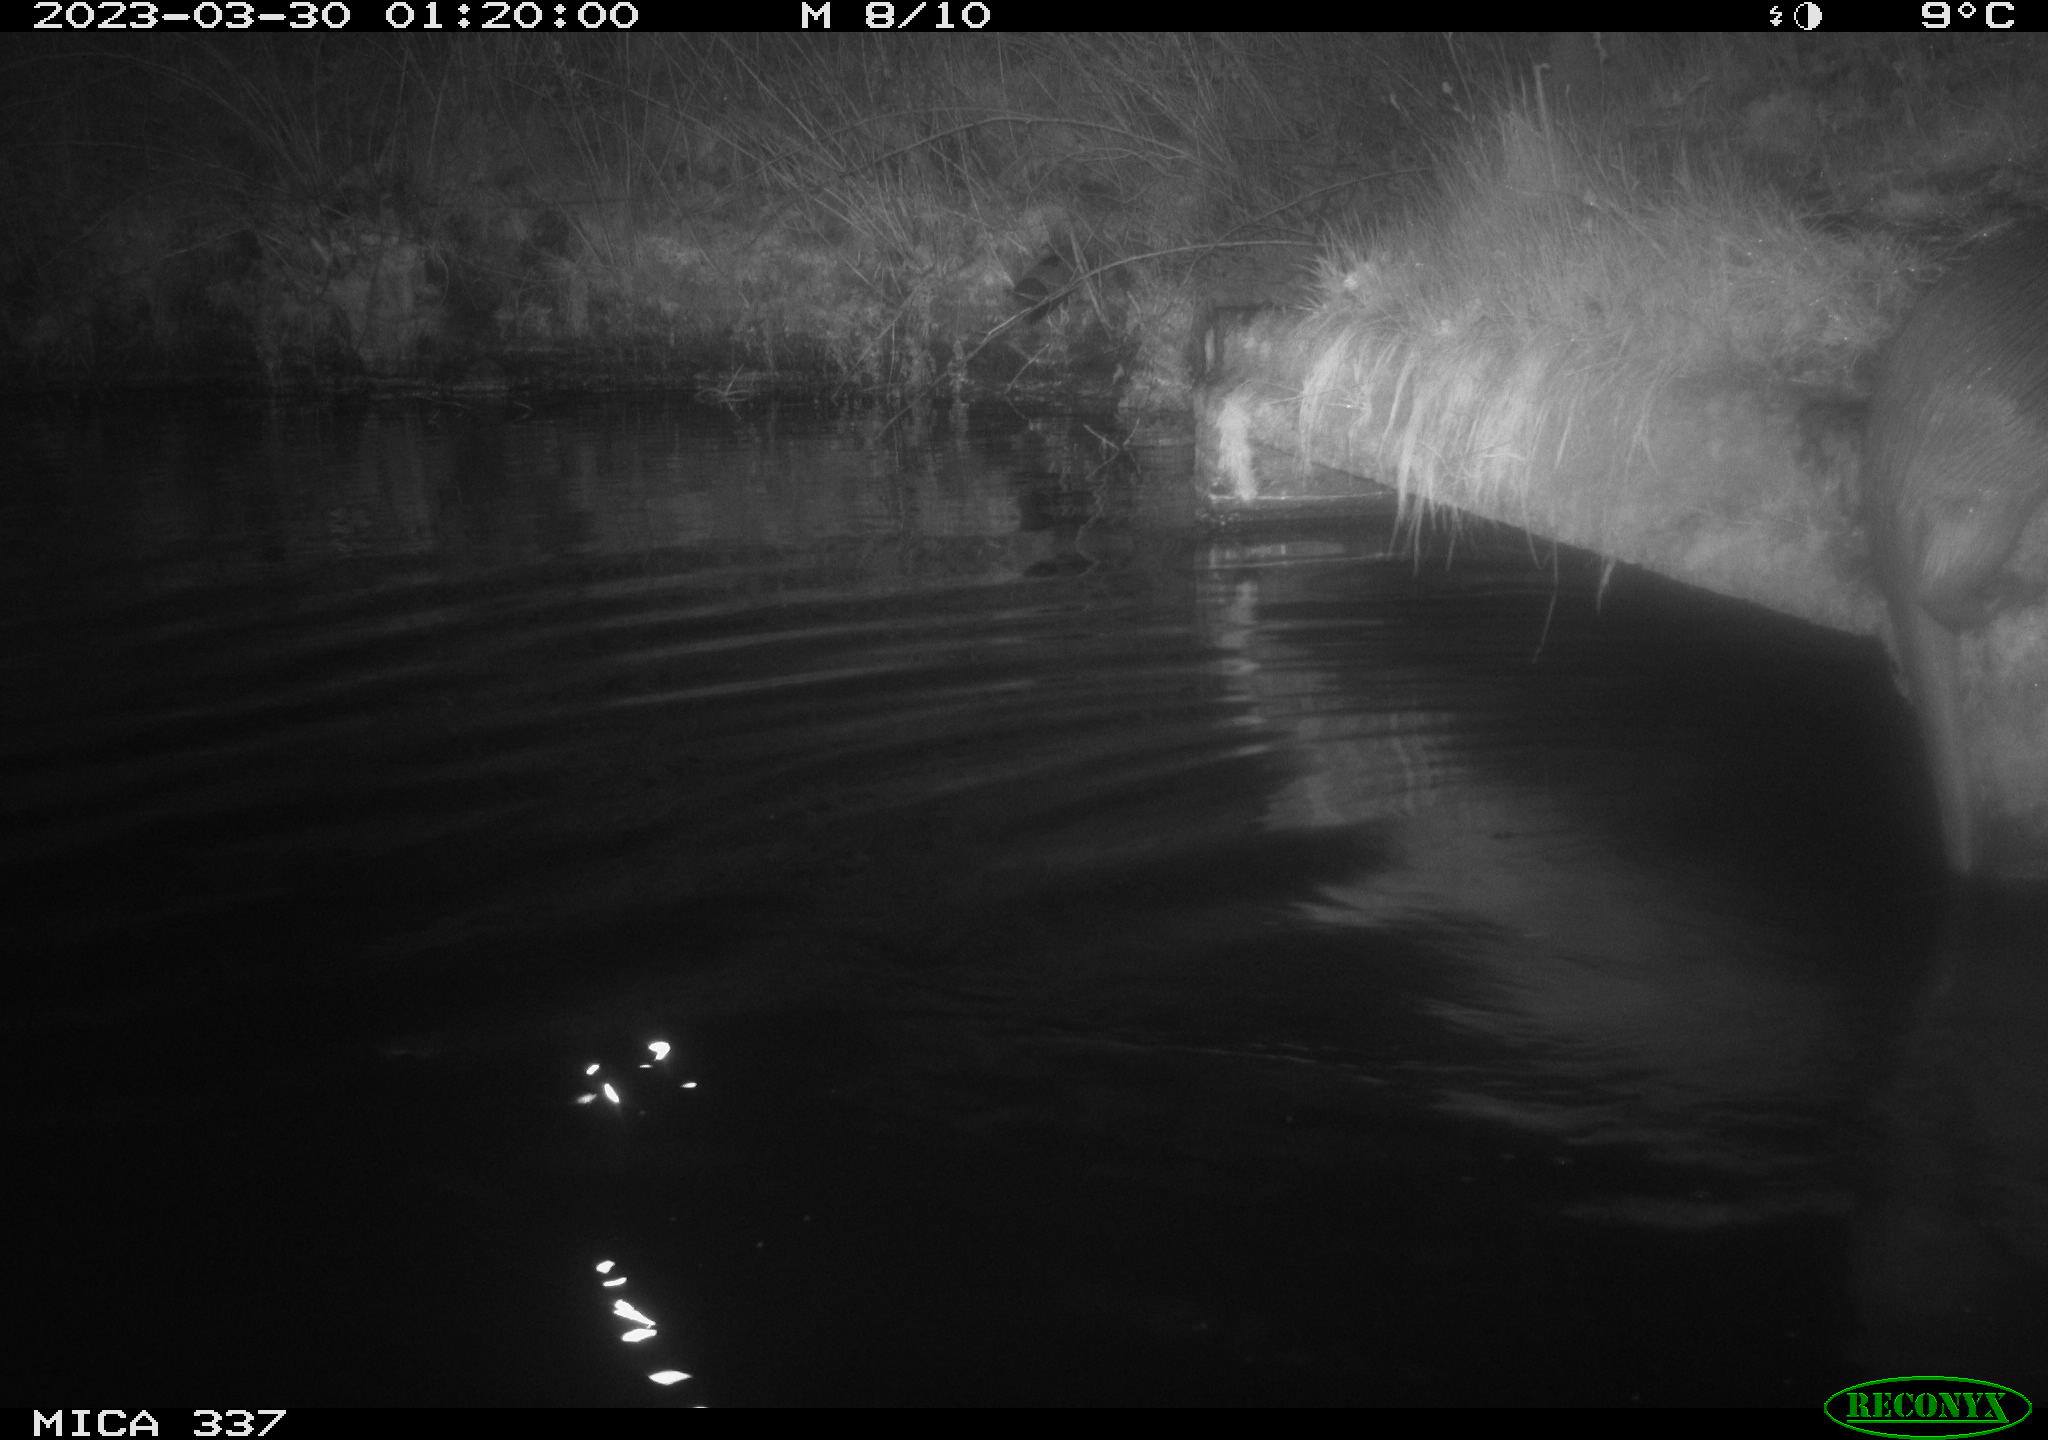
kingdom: Animalia
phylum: Chordata
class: Mammalia
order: Carnivora
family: Mustelidae
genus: Lutra
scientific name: Lutra lutra
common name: European otter
